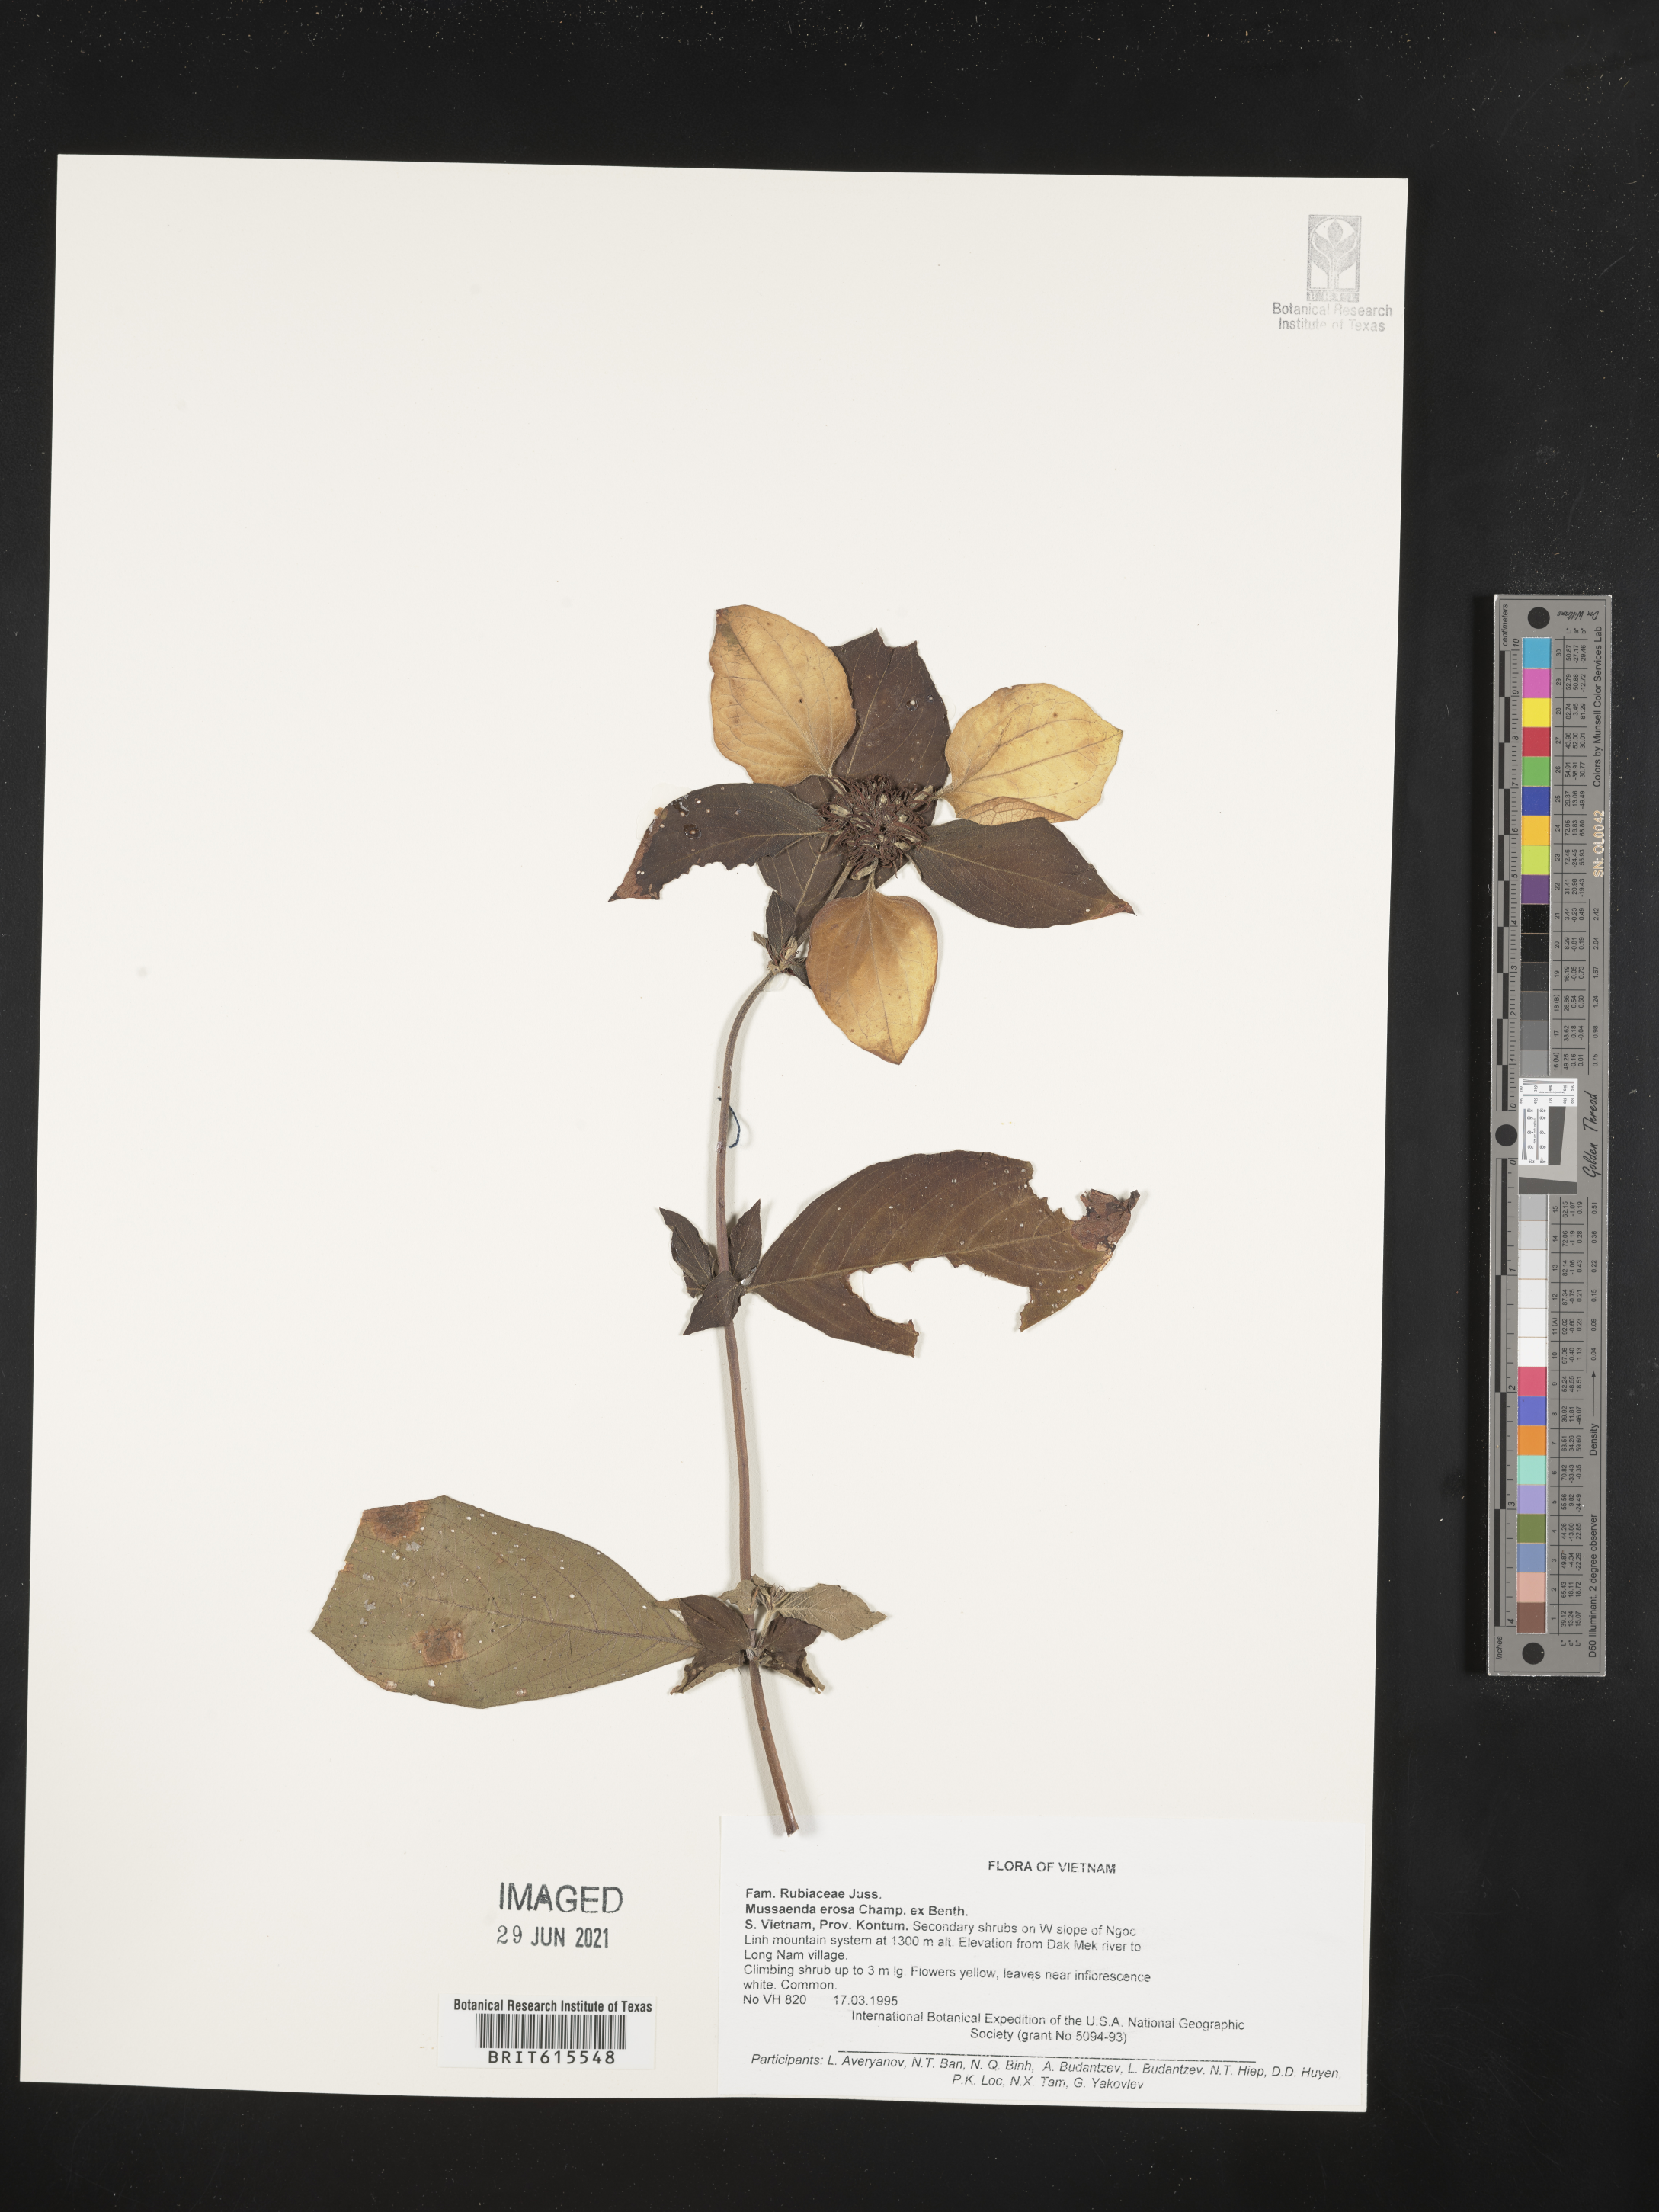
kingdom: Plantae
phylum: Tracheophyta
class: Magnoliopsida
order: Gentianales
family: Rubiaceae
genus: Mussaenda
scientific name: Mussaenda erosa
